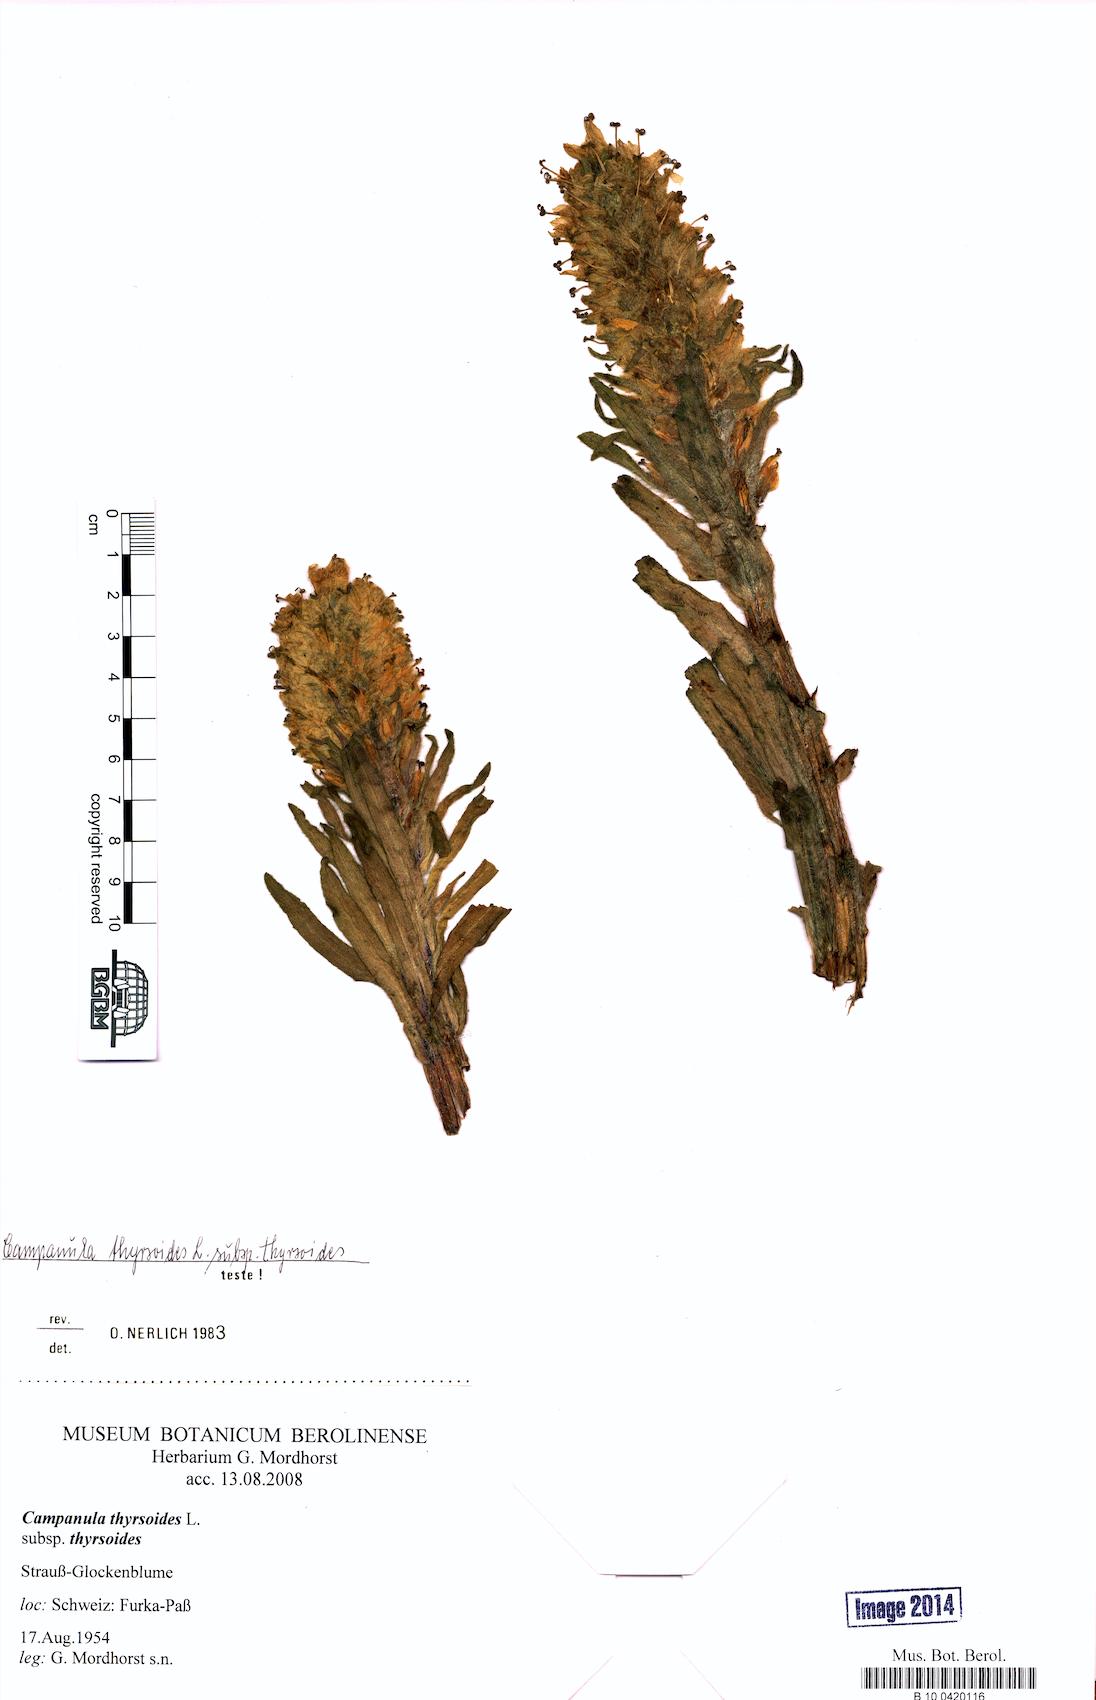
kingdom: Plantae
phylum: Tracheophyta
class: Magnoliopsida
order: Asterales
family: Campanulaceae
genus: Campanula
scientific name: Campanula thyrsoides
